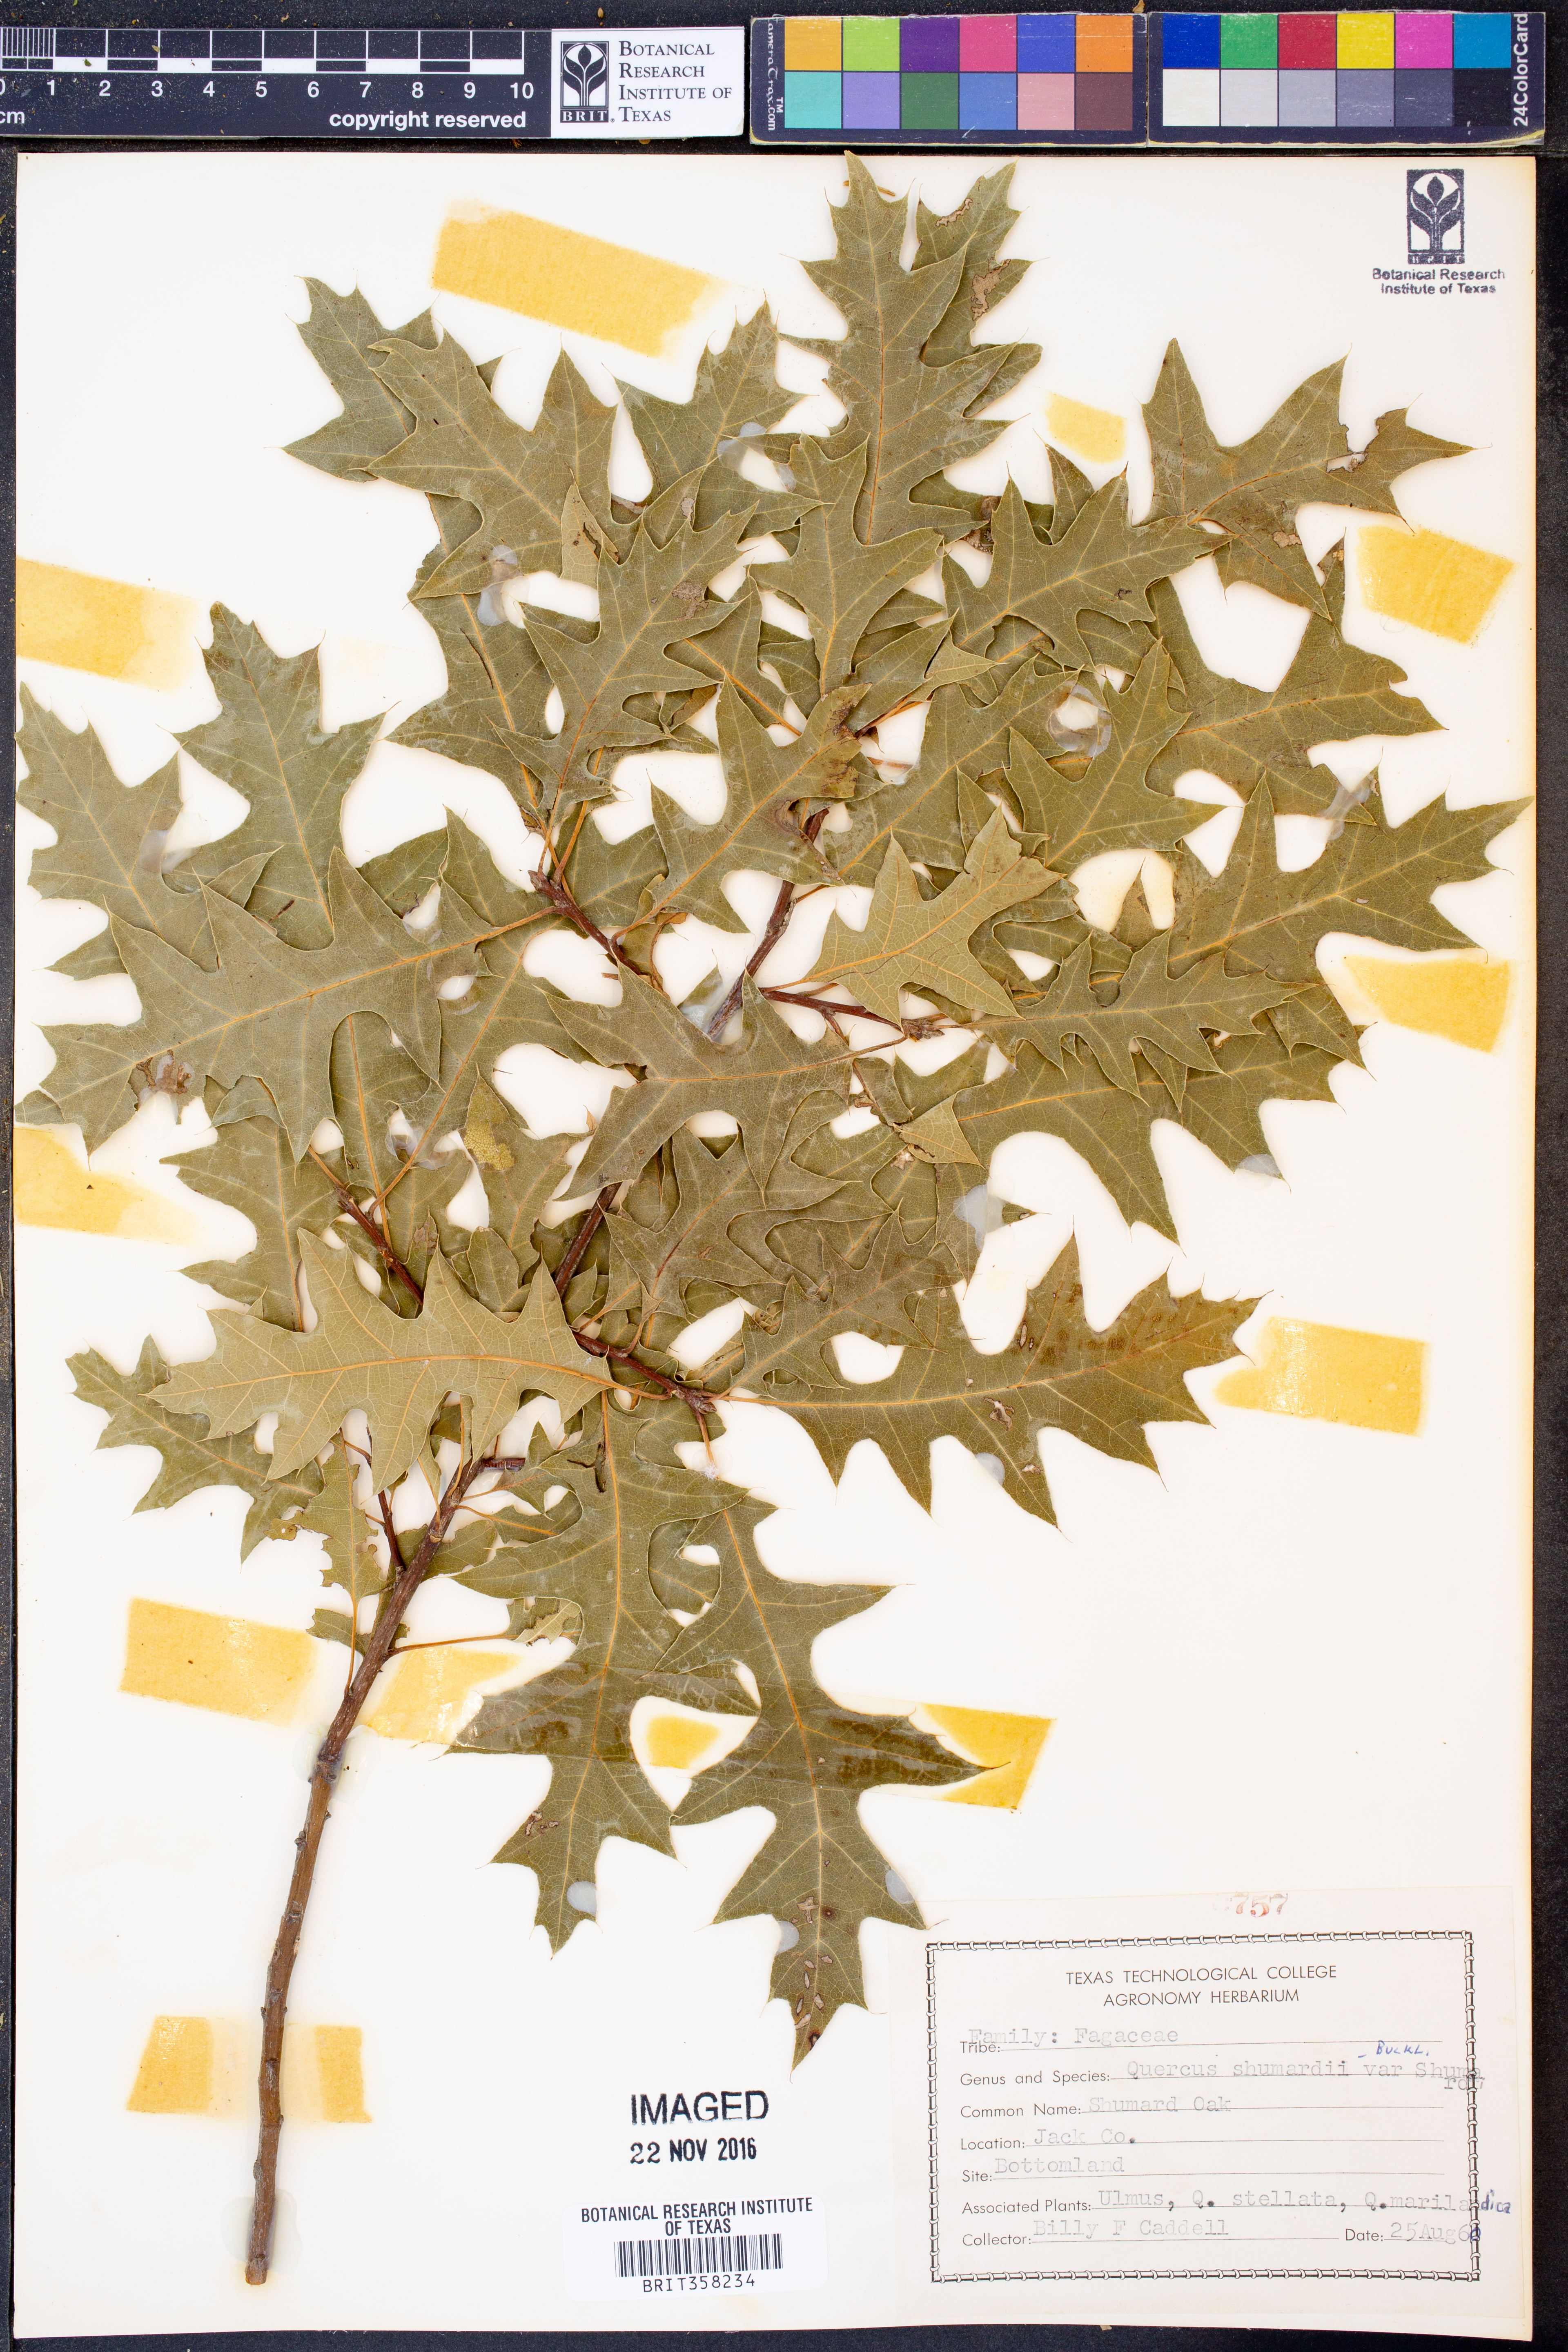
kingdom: Plantae
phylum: Tracheophyta
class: Magnoliopsida
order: Fagales
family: Fagaceae
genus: Quercus
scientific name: Quercus shumardii
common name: Shumard oak
